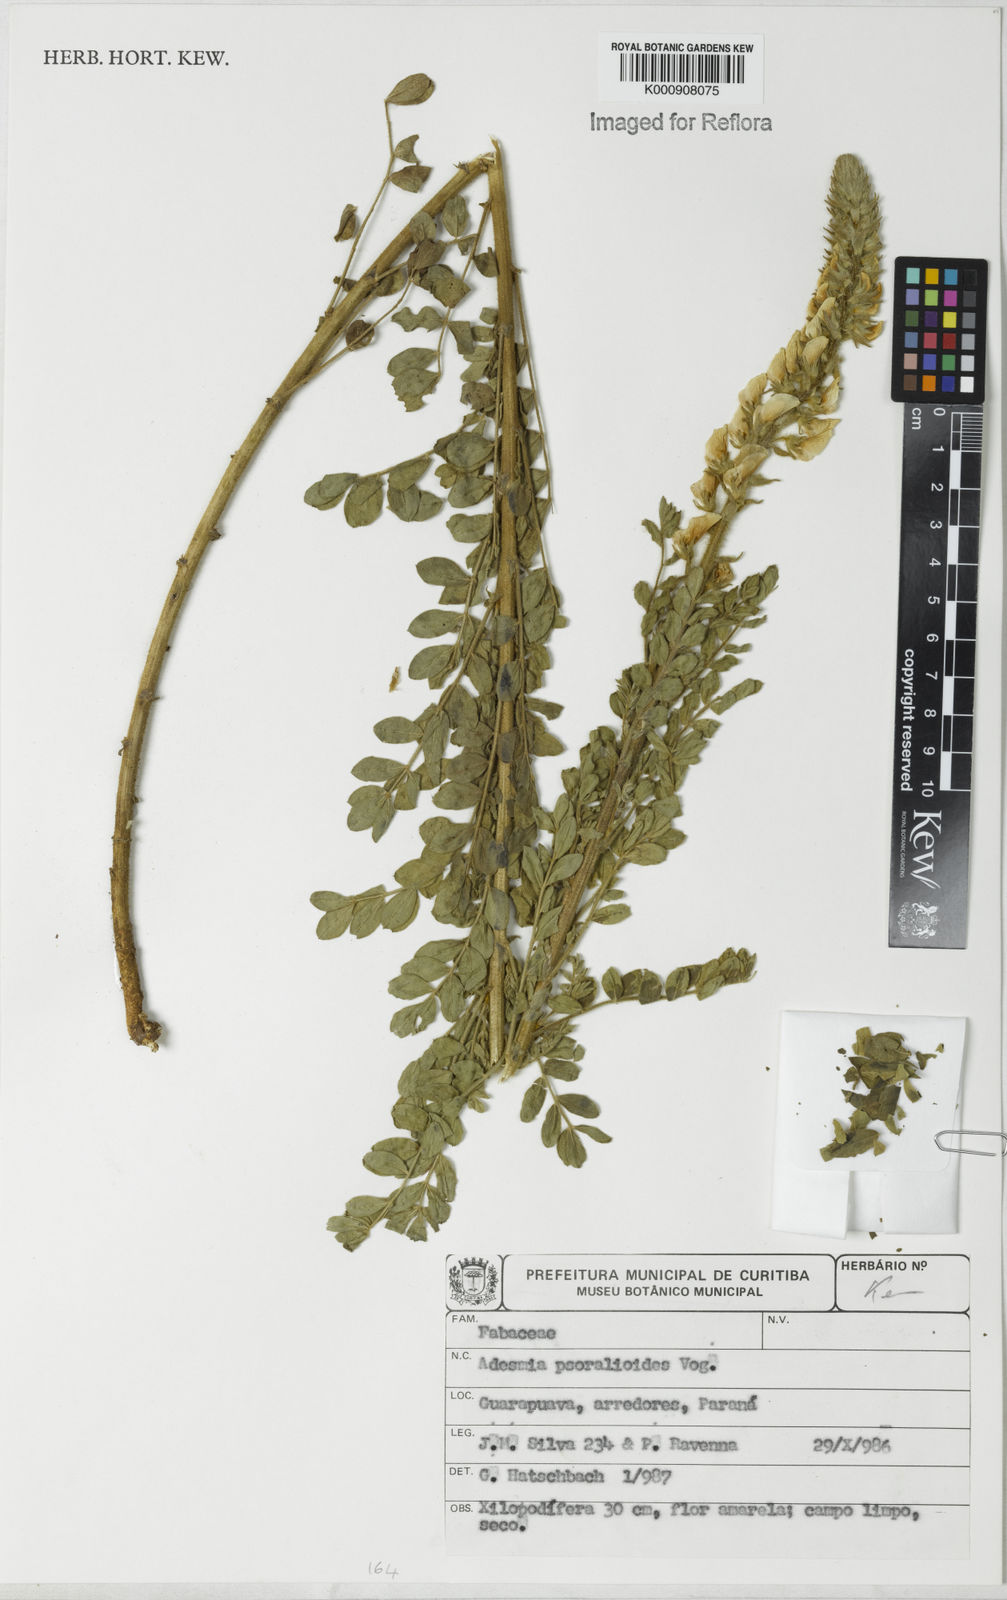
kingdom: Plantae
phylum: Tracheophyta
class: Magnoliopsida
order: Fabales
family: Fabaceae
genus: Adesmia
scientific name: Adesmia psoraleoides
